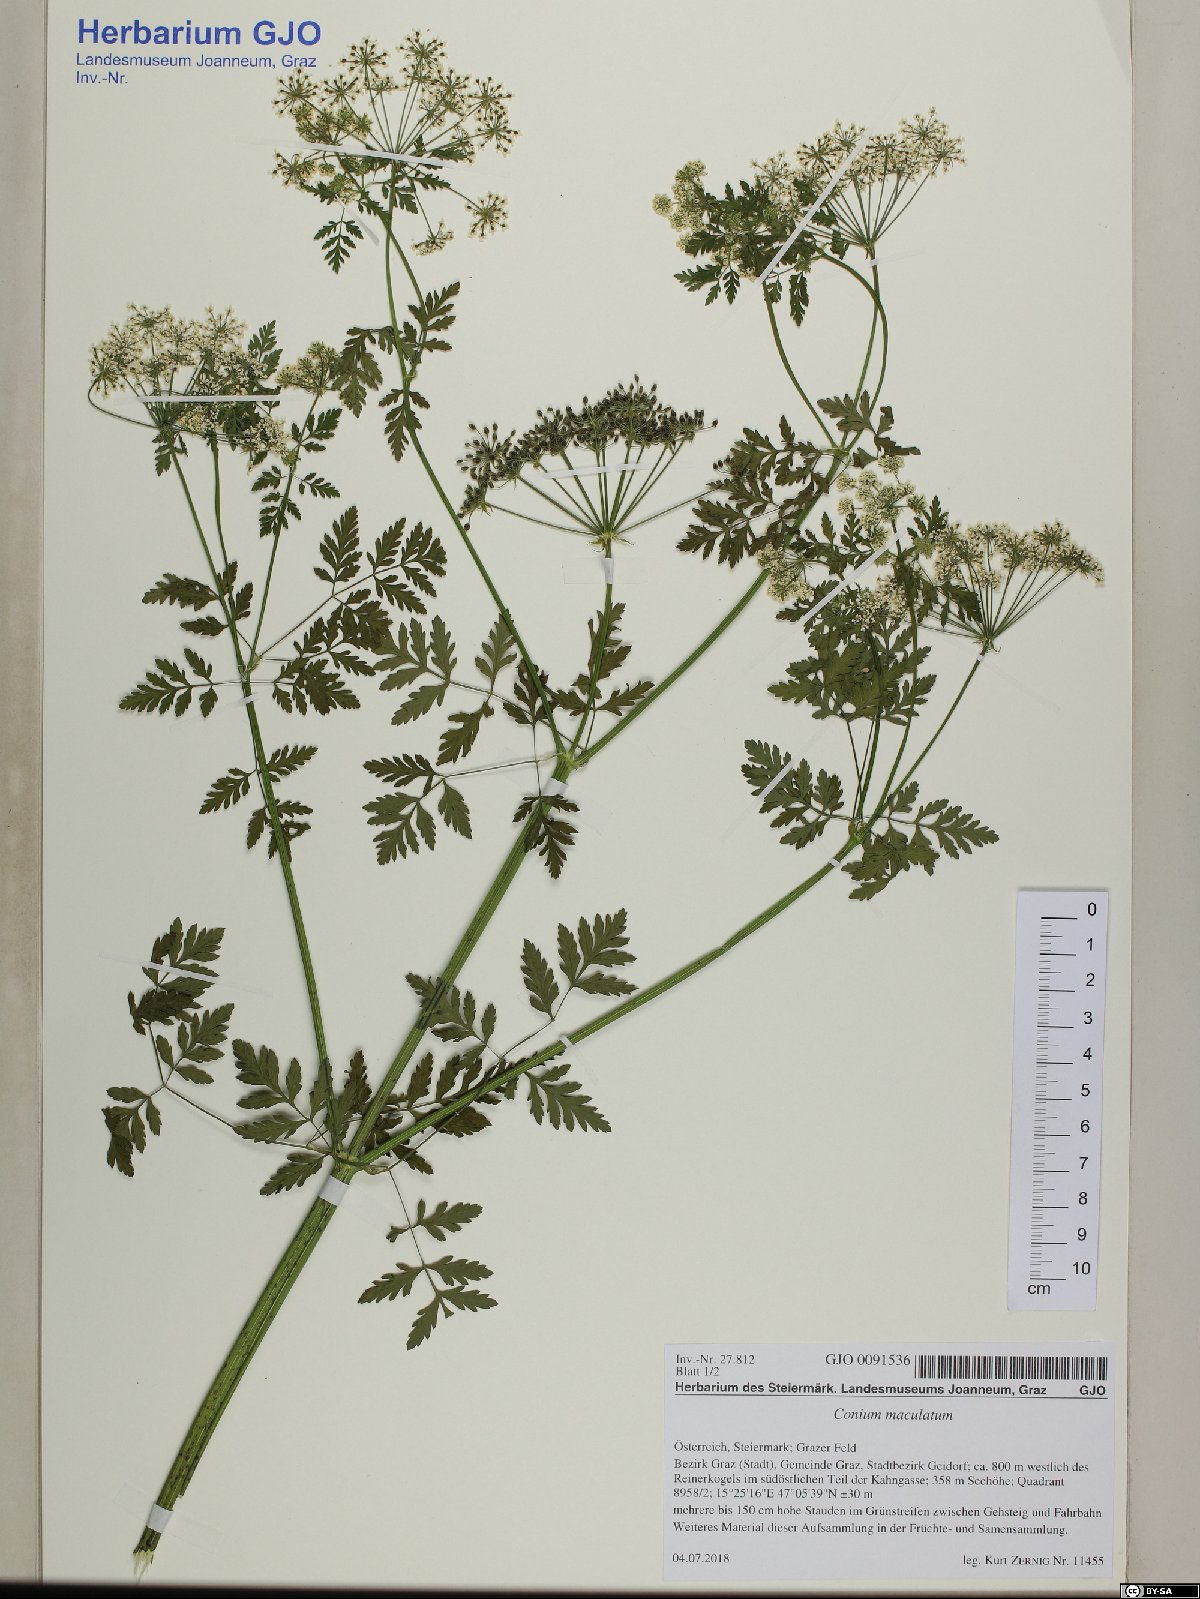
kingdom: Plantae
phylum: Tracheophyta
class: Magnoliopsida
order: Apiales
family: Apiaceae
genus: Conium
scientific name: Conium maculatum
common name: Hemlock
